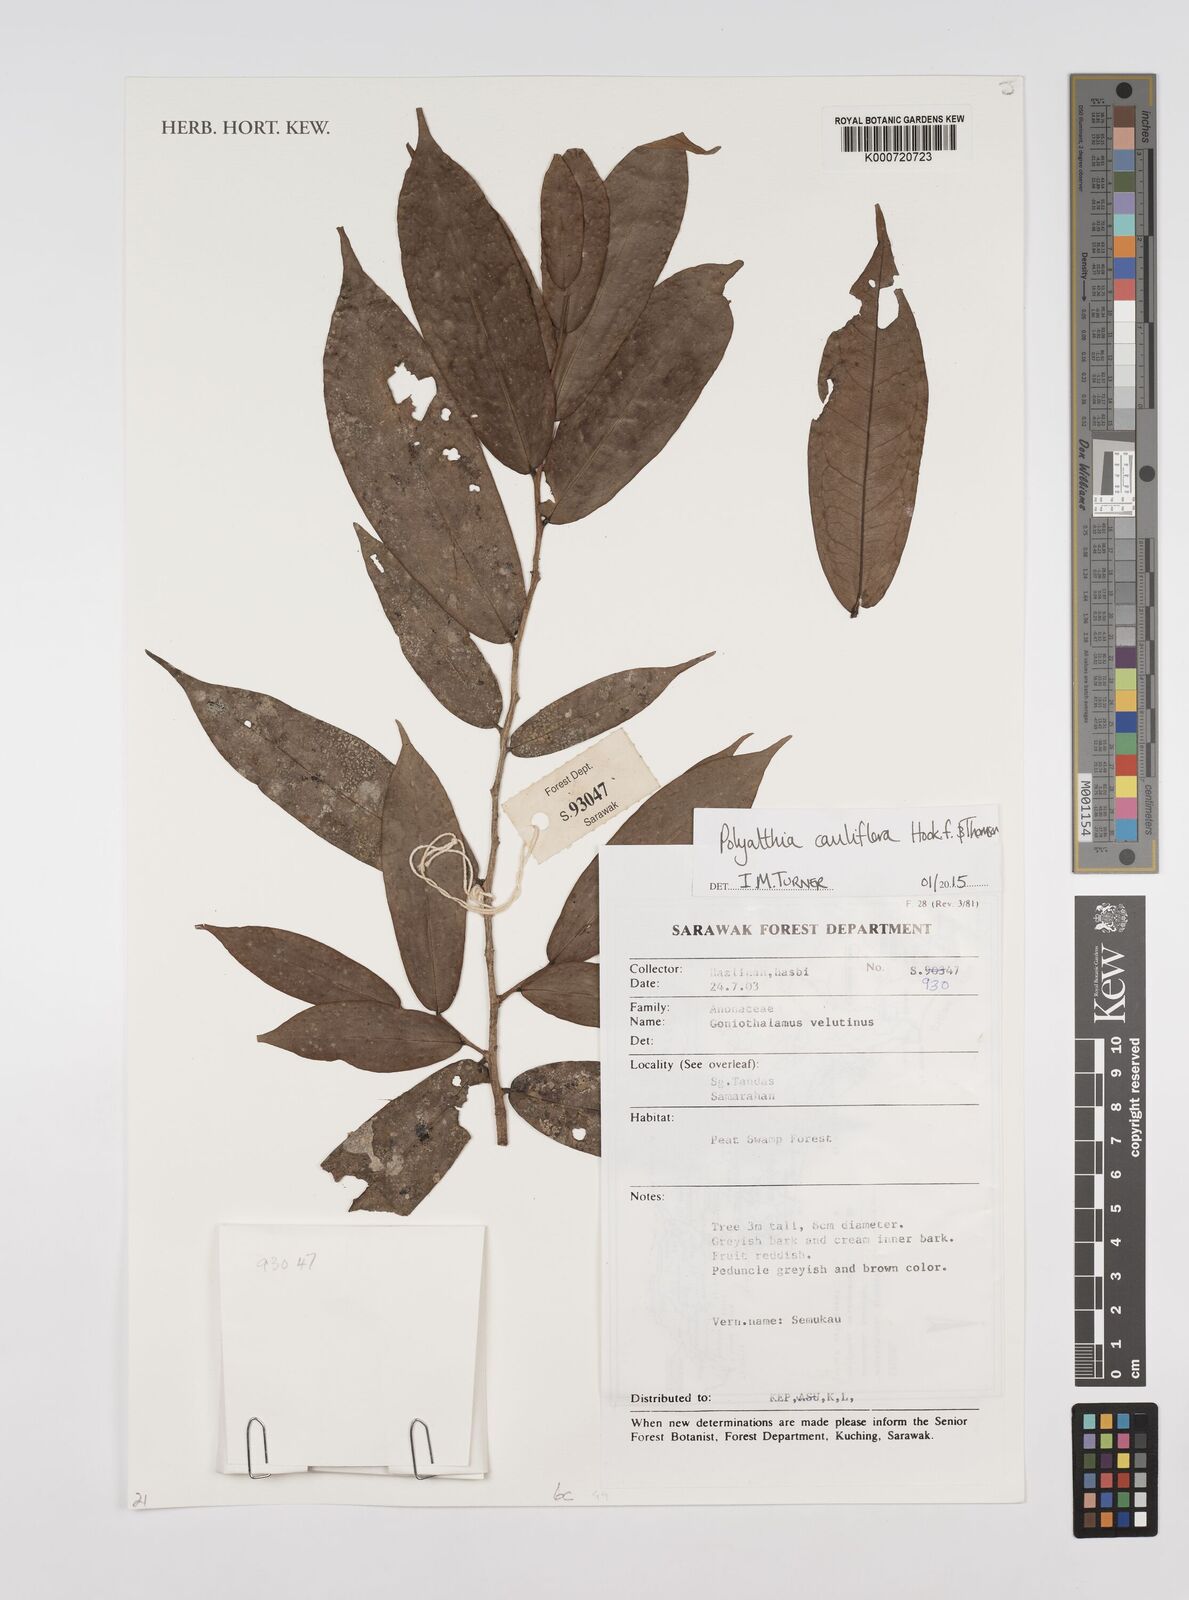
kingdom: Plantae
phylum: Tracheophyta
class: Magnoliopsida
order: Magnoliales
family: Annonaceae
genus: Polyalthia
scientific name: Polyalthia cauliflora
